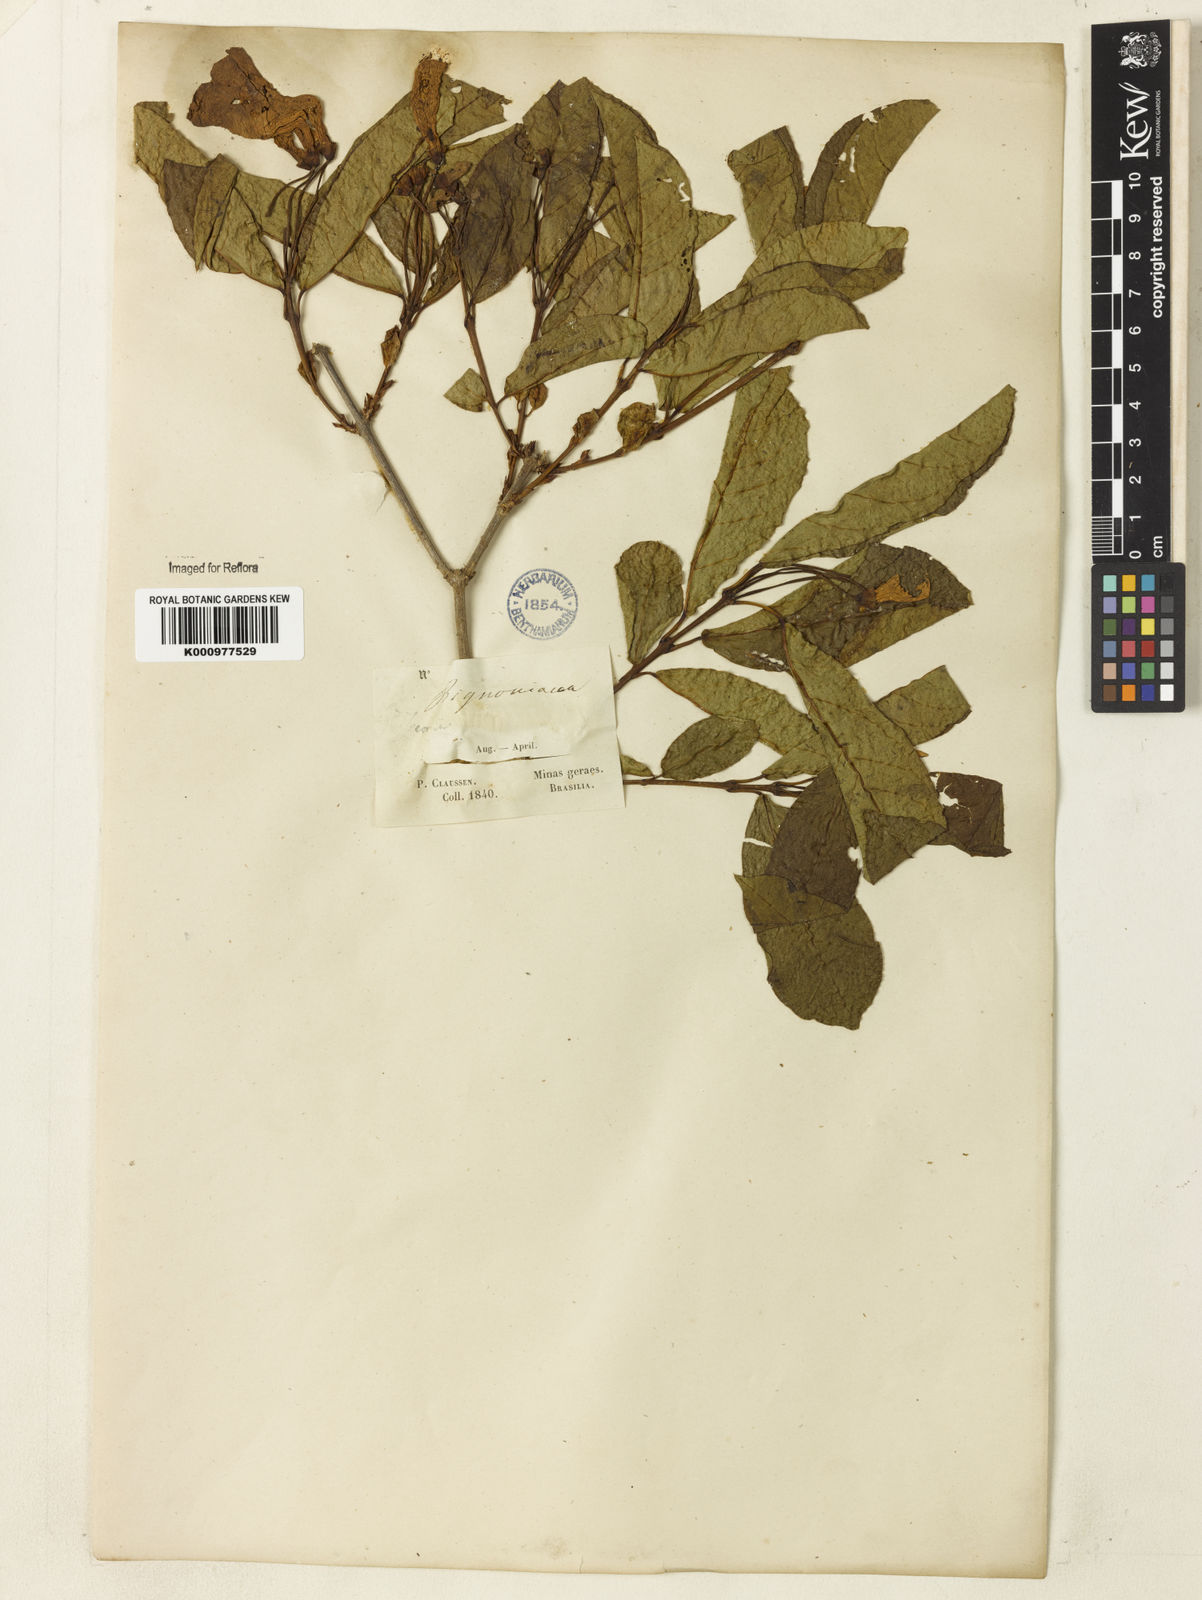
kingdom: Plantae
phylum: Tracheophyta
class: Magnoliopsida
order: Lamiales
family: Bignoniaceae
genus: Bignonia
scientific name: Bignonia binata
